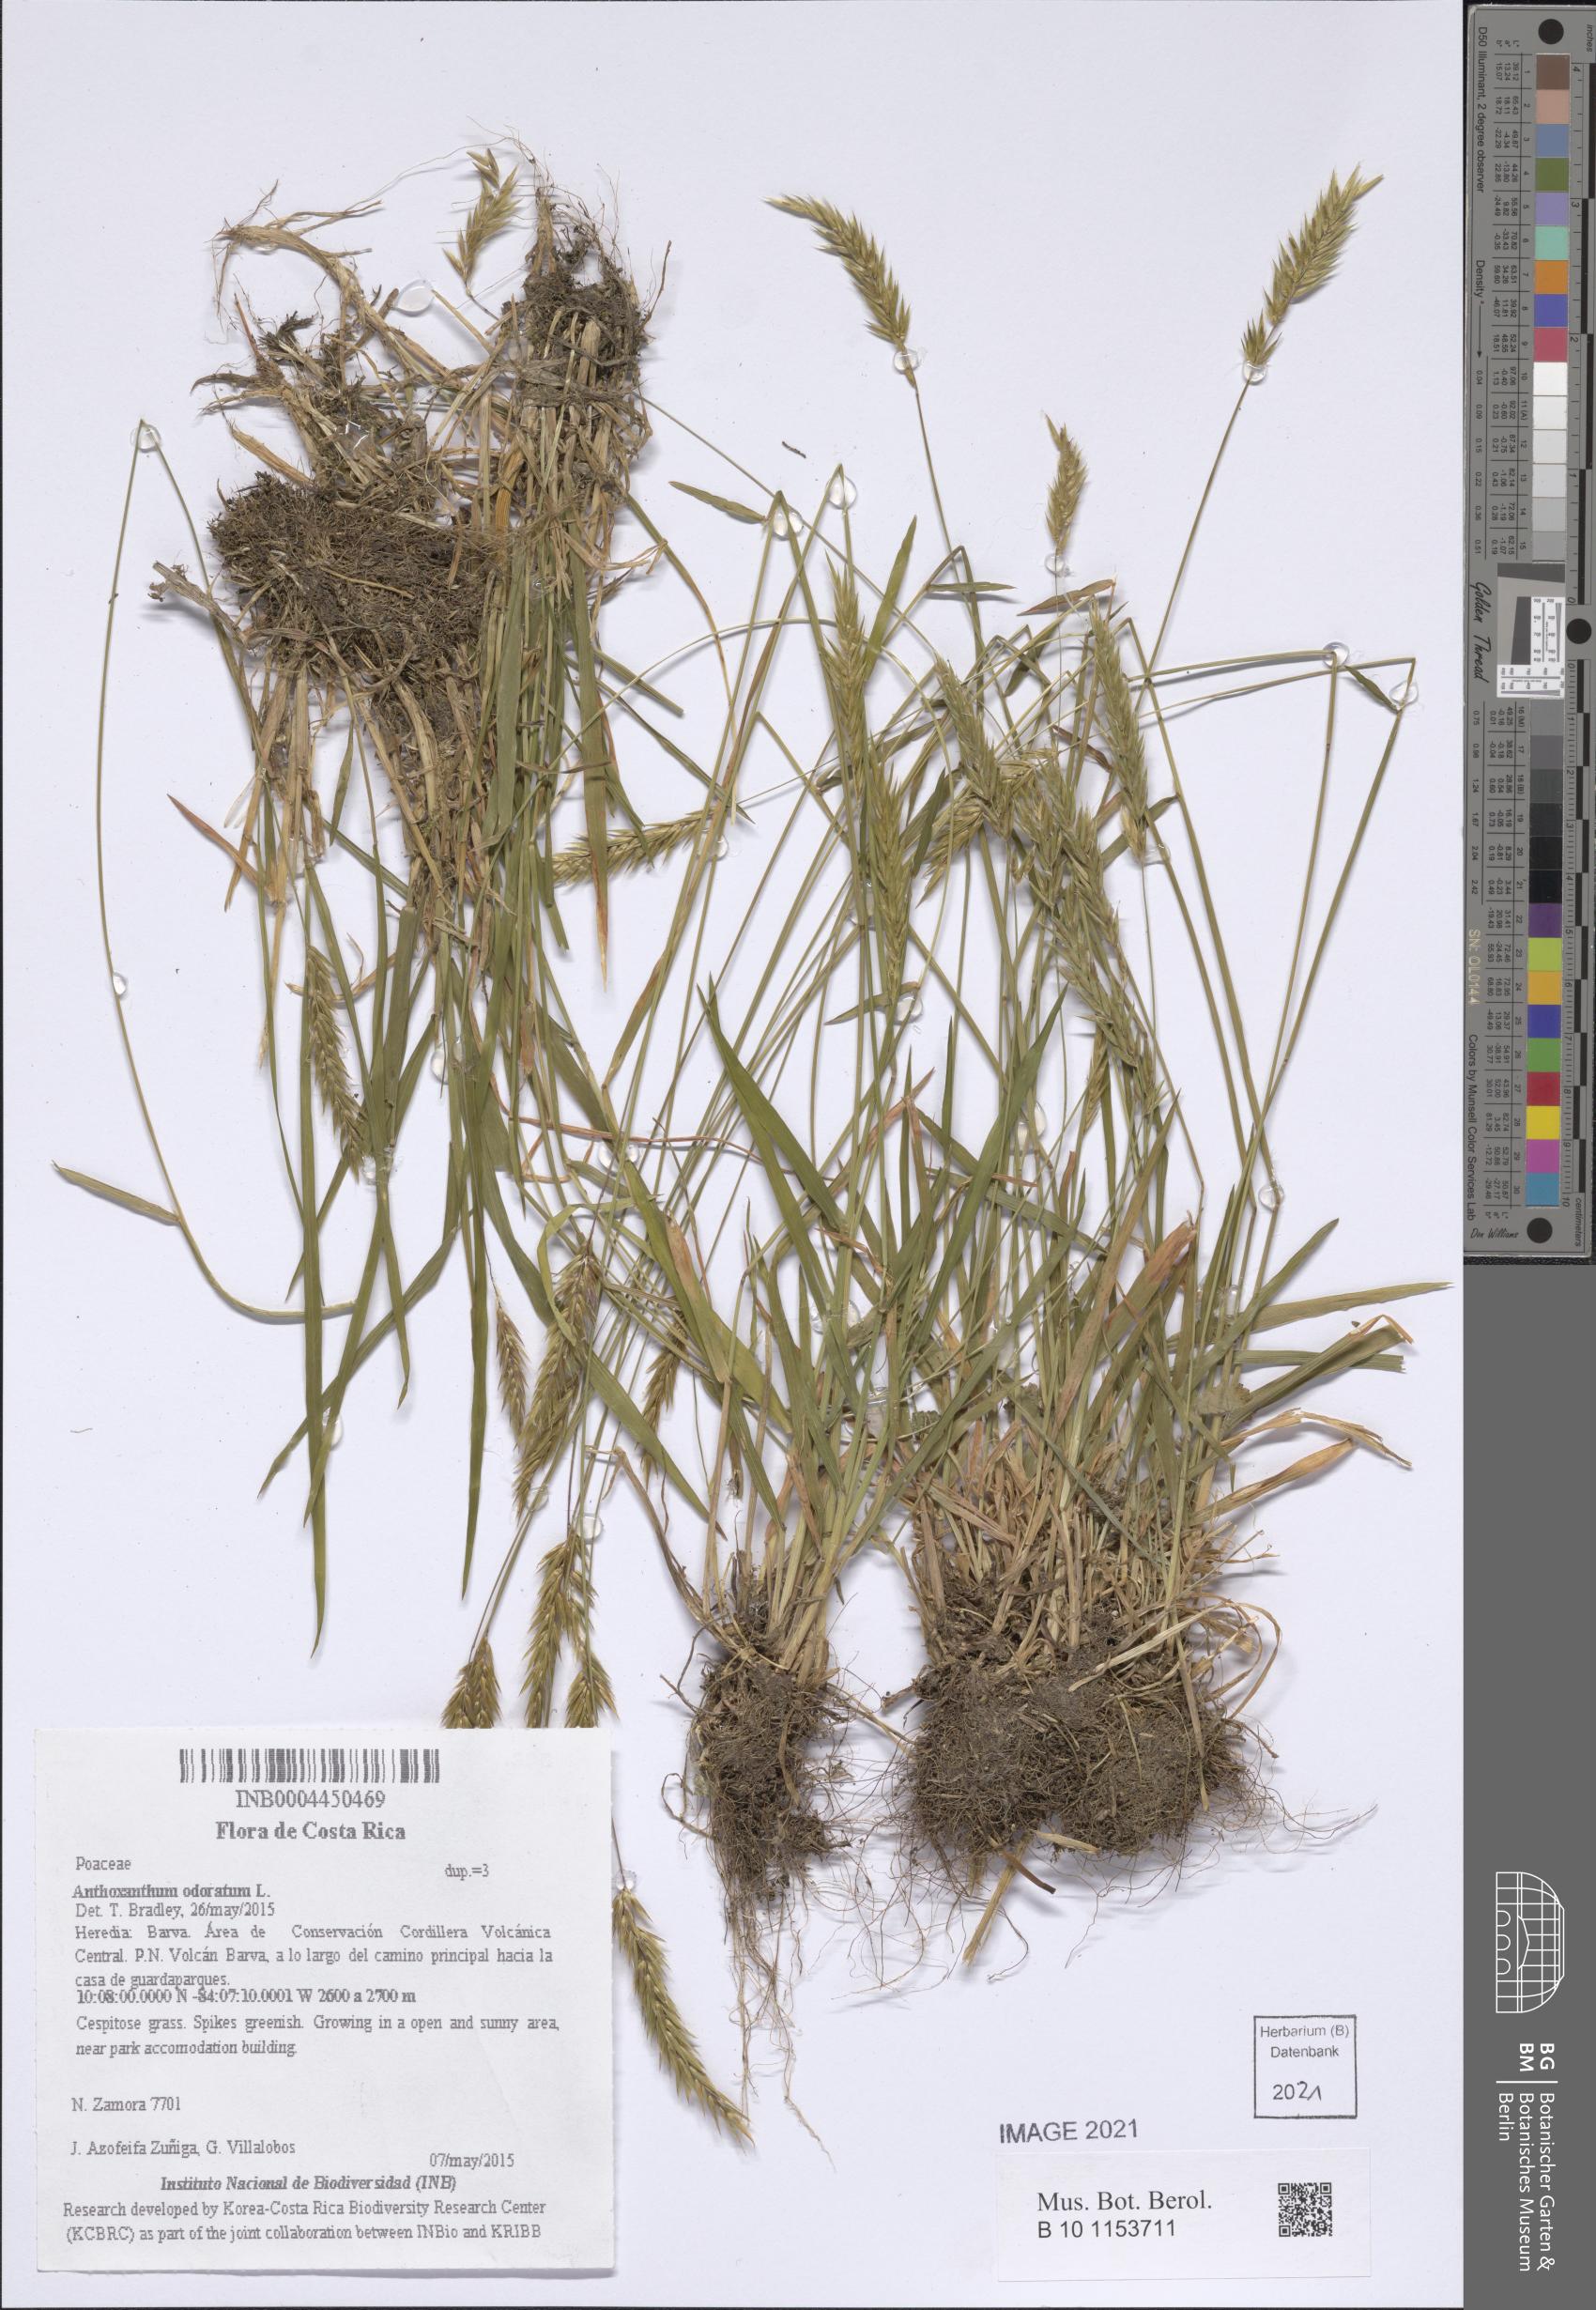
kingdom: Plantae
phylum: Tracheophyta
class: Liliopsida
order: Poales
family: Poaceae
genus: Anthoxanthum
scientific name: Anthoxanthum odoratum
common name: Sweet vernalgrass
